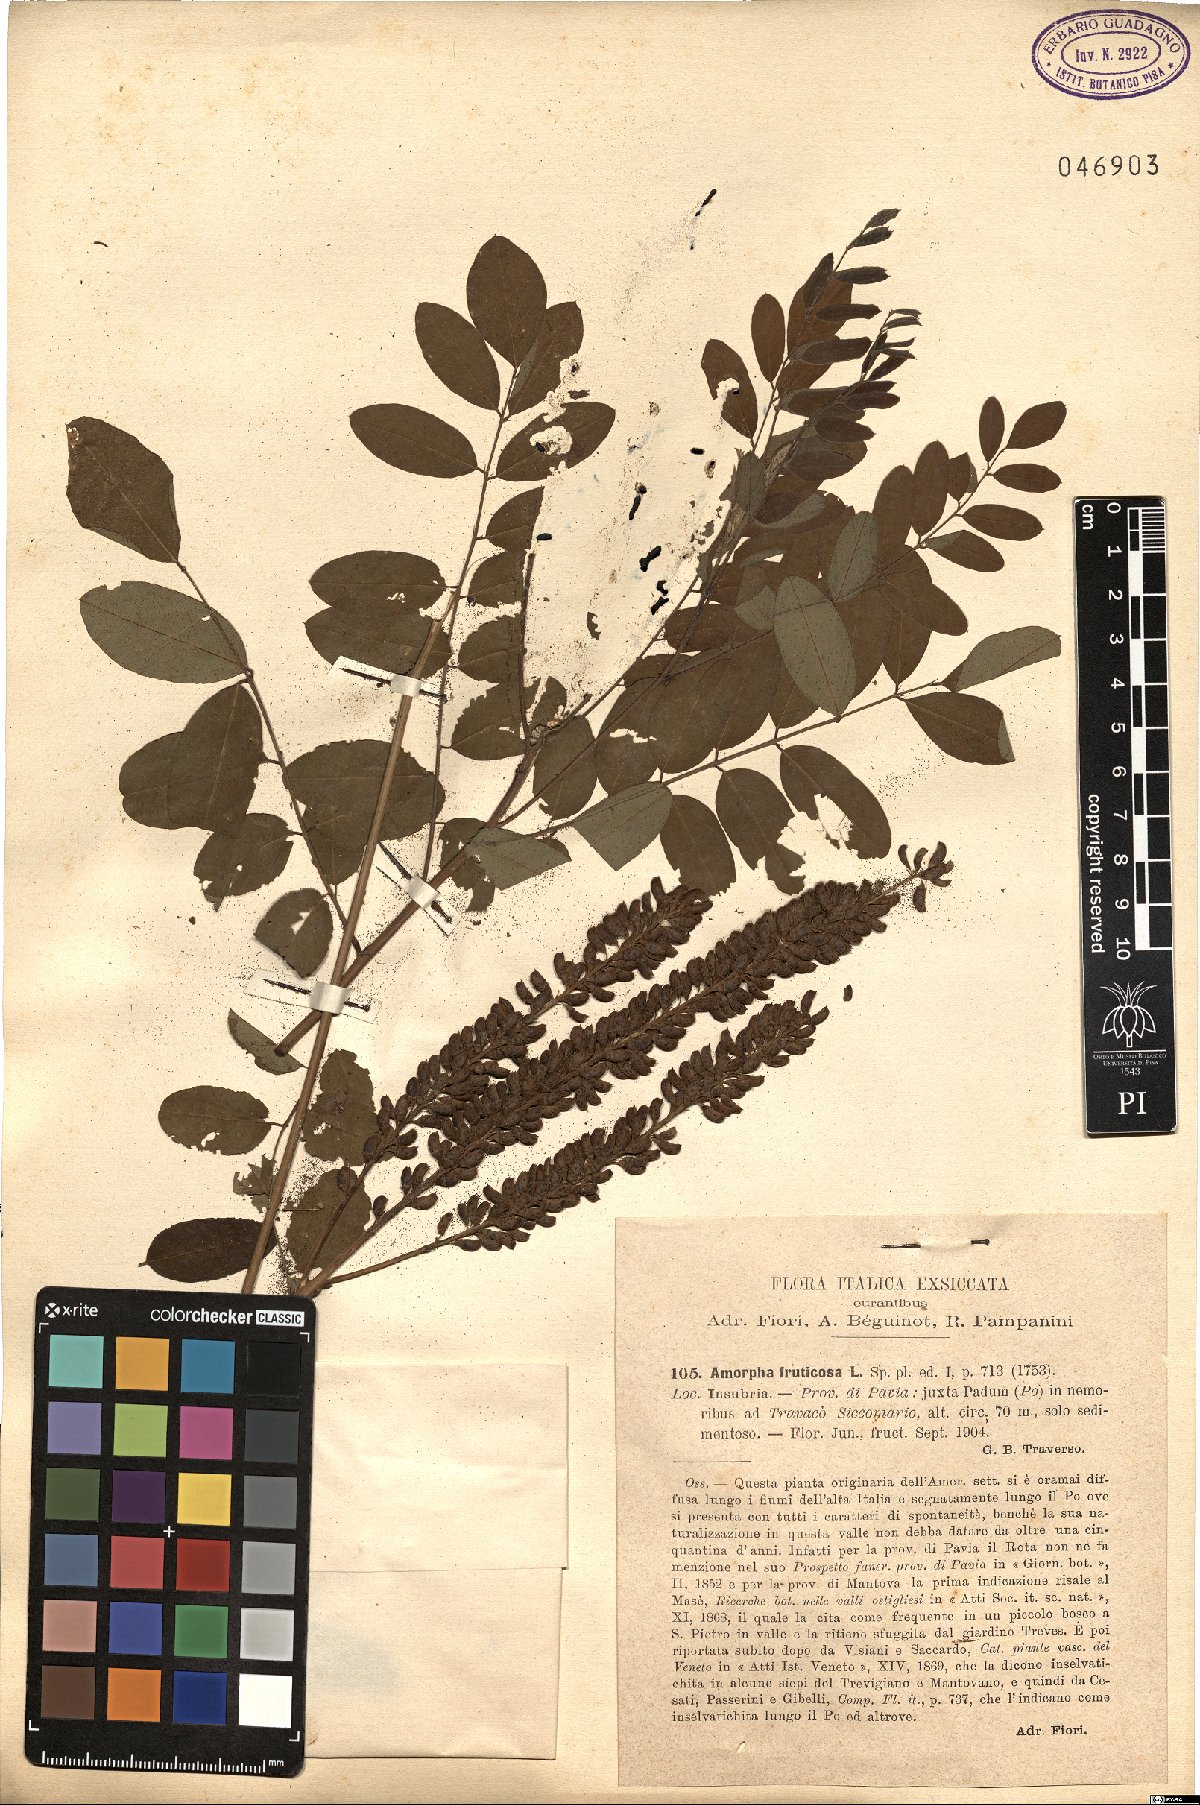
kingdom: Plantae
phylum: Tracheophyta
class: Magnoliopsida
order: Fabales
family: Fabaceae
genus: Amorpha
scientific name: Amorpha fruticosa
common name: False indigo
